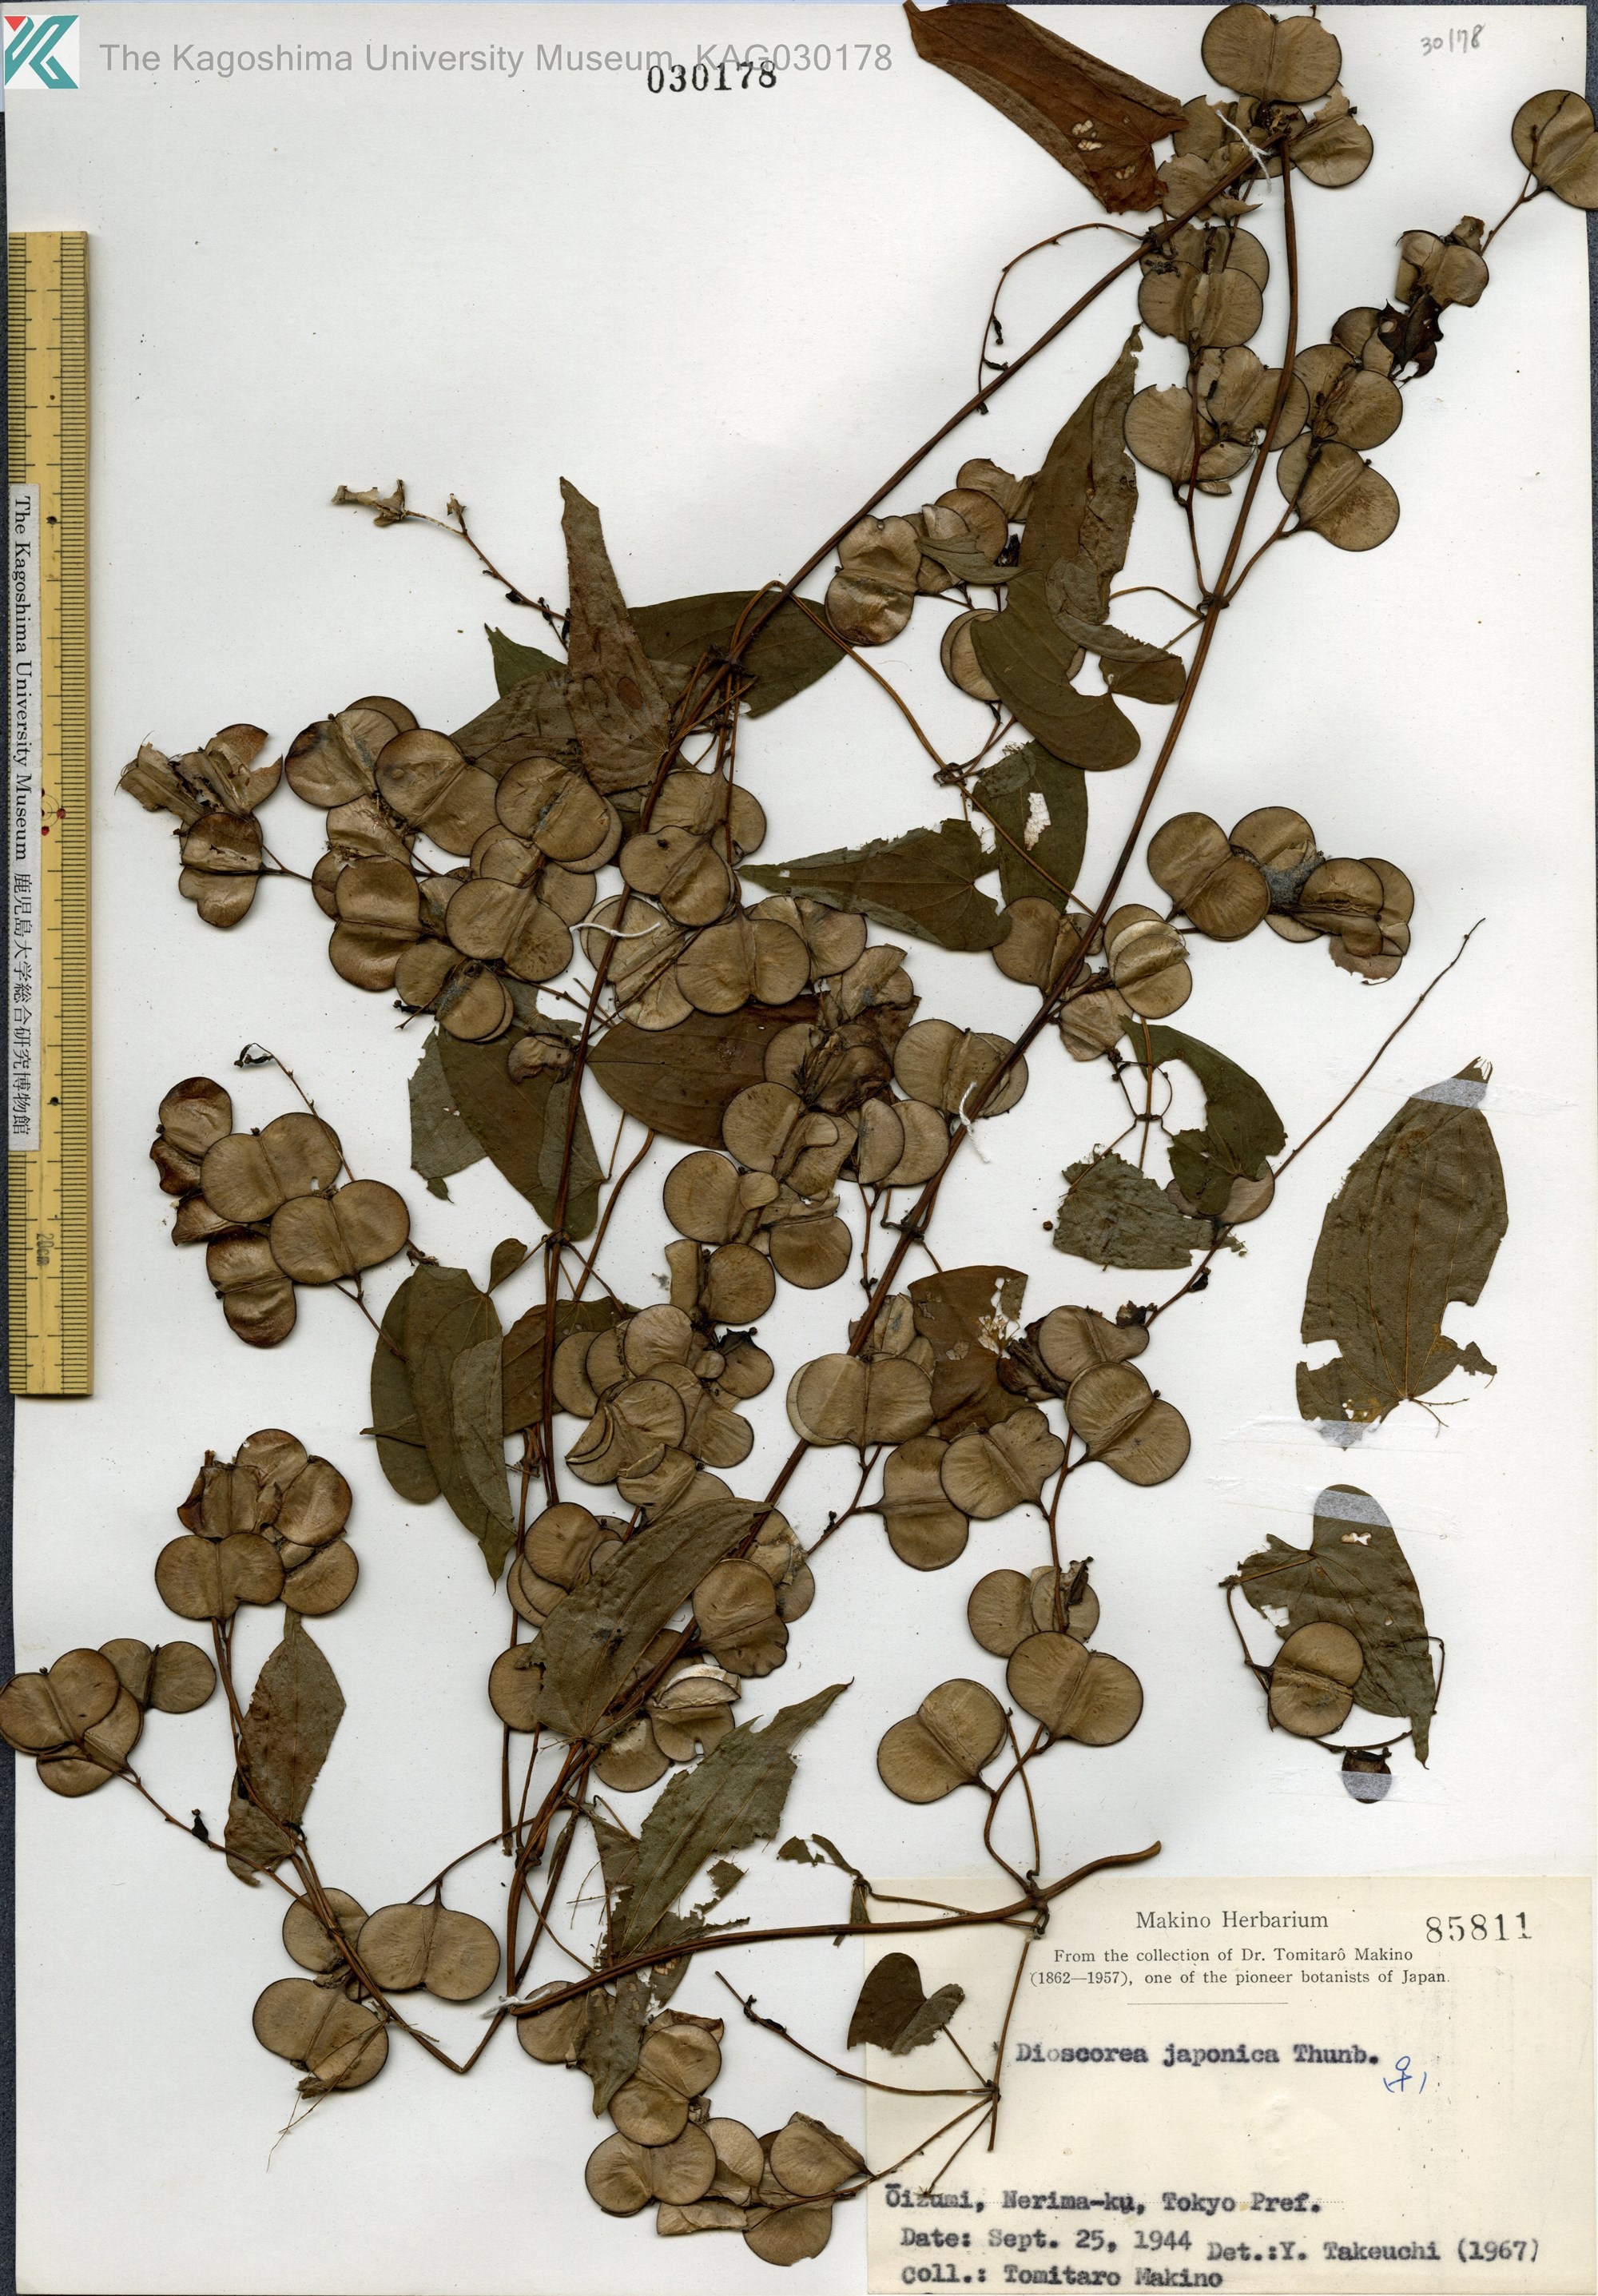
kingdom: Plantae
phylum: Tracheophyta
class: Liliopsida
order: Dioscoreales
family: Dioscoreaceae
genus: Dioscorea
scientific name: Dioscorea japonica
